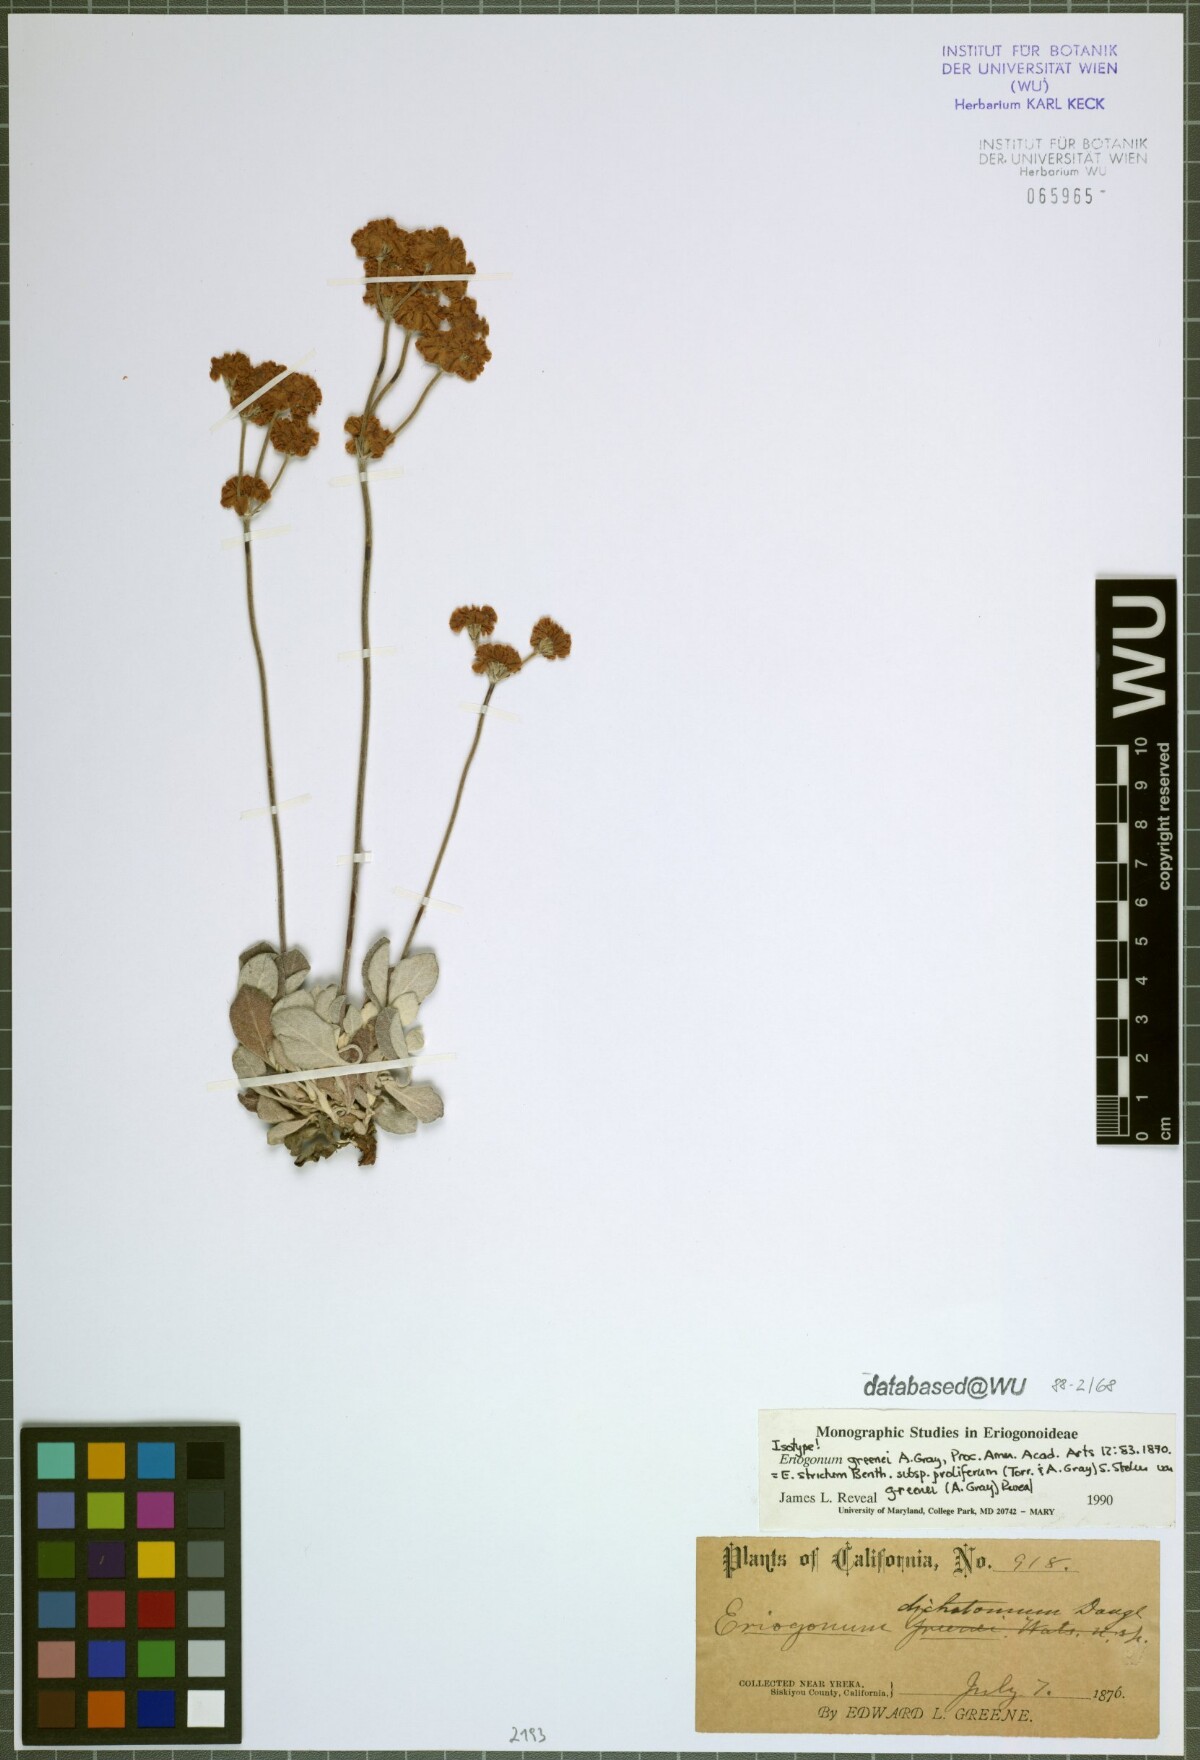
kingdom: Plantae
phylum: Tracheophyta
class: Magnoliopsida
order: Caryophyllales
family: Polygonaceae
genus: Eriogonum
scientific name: Eriogonum strictum
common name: Blue mountain buckwheat
